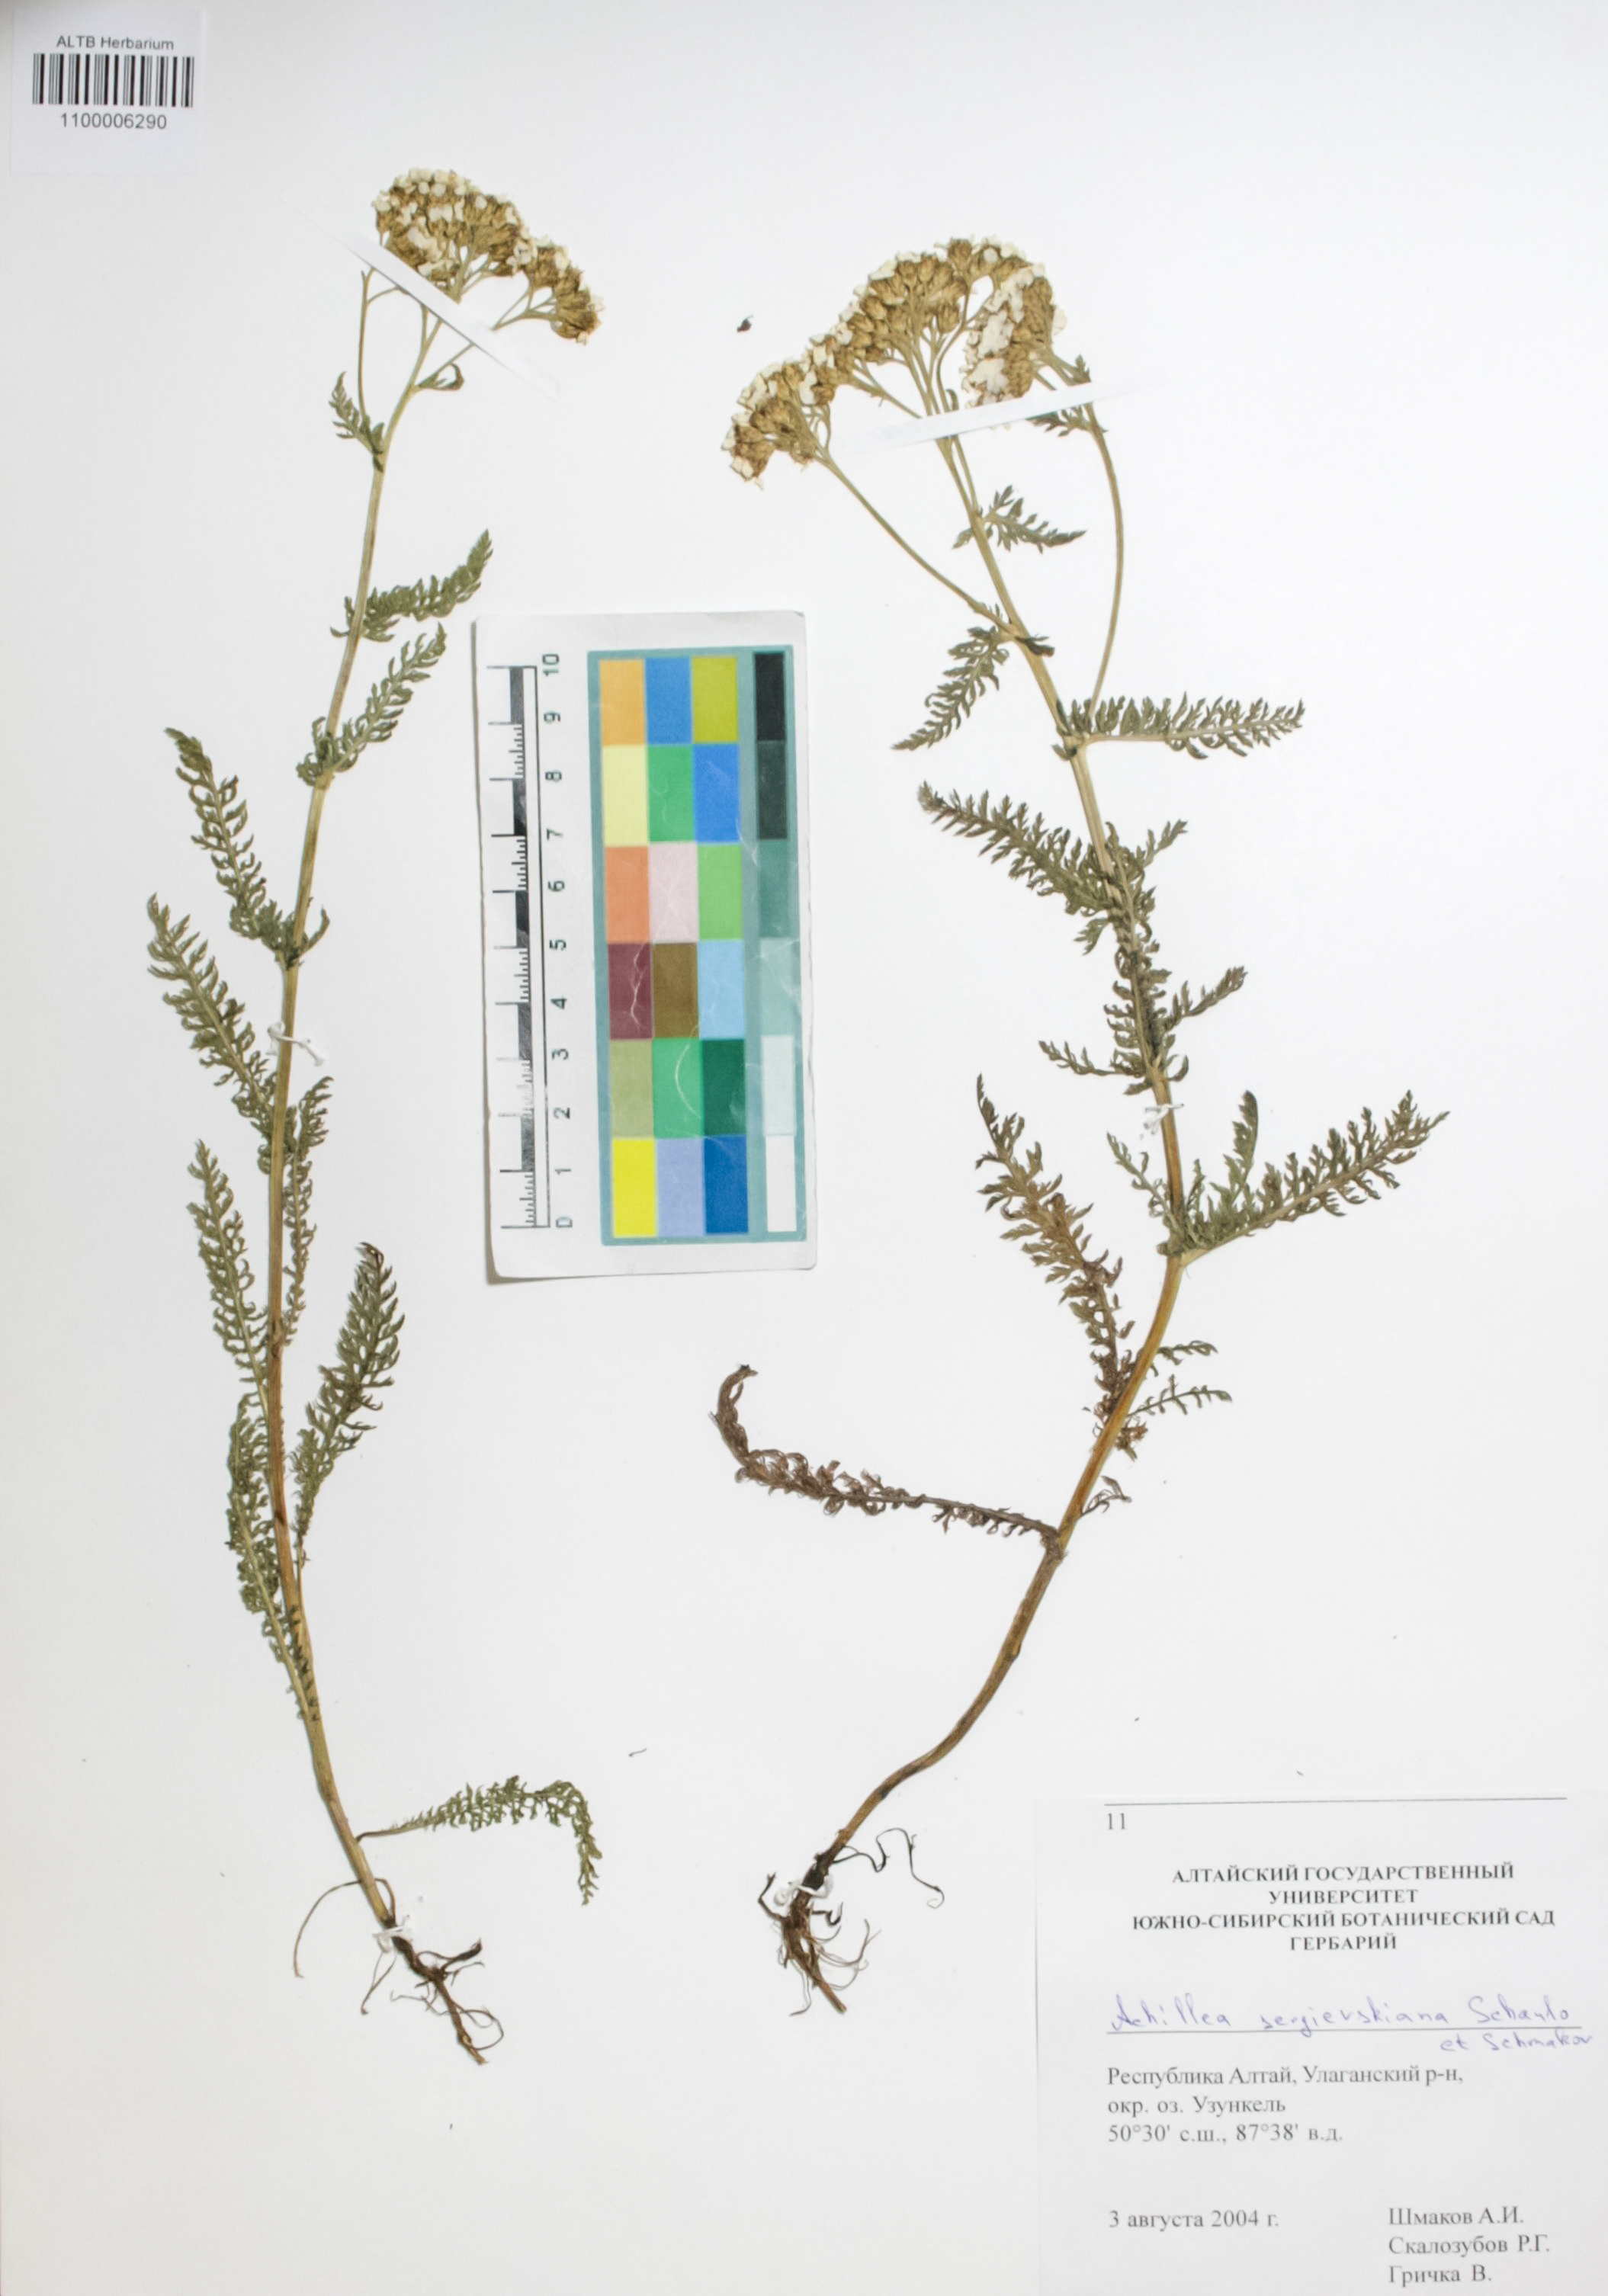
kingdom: Plantae
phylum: Tracheophyta
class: Magnoliopsida
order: Asterales
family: Asteraceae
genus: Achillea
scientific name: Achillea sergievskiana
